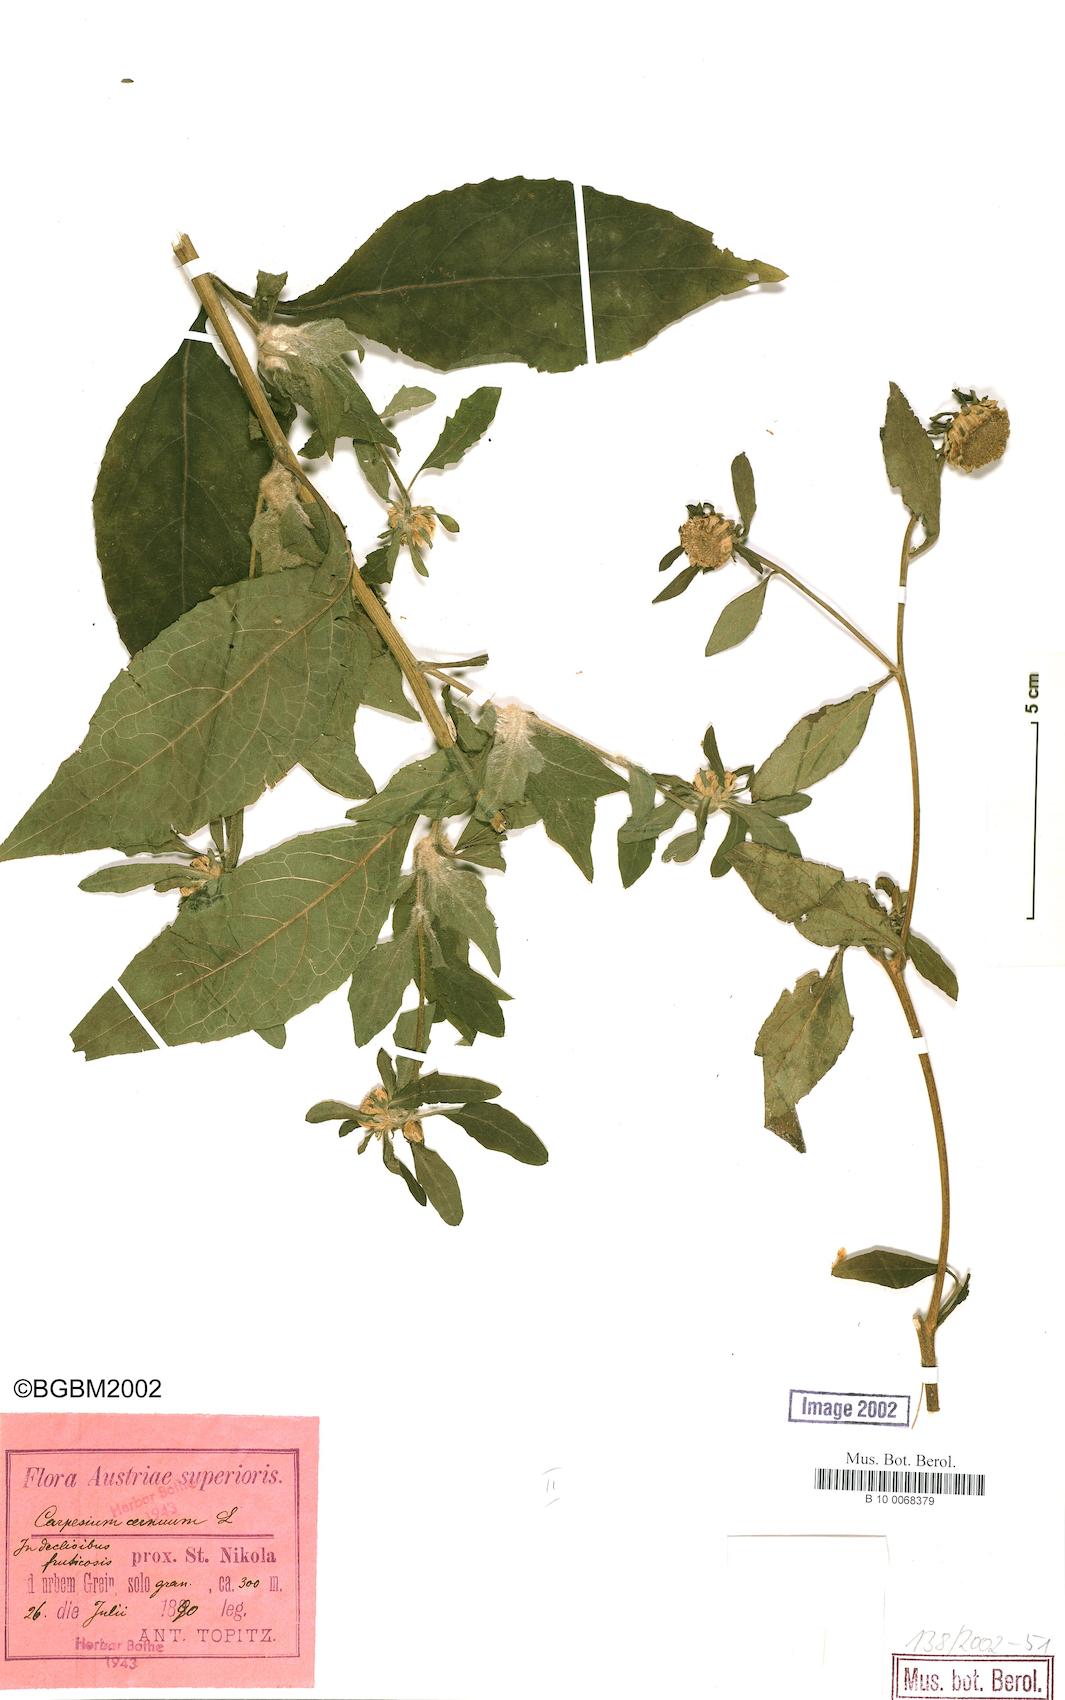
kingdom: Plantae
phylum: Tracheophyta
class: Magnoliopsida
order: Asterales
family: Asteraceae
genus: Carpesium
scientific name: Carpesium cernuum
